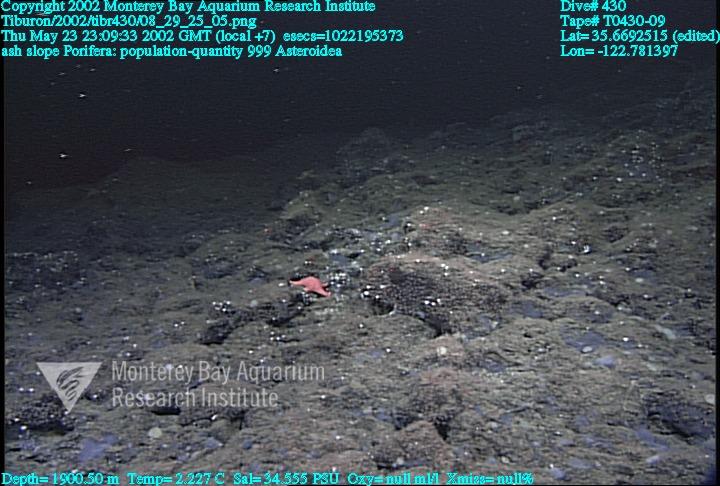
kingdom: Animalia
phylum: Porifera
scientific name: Porifera
